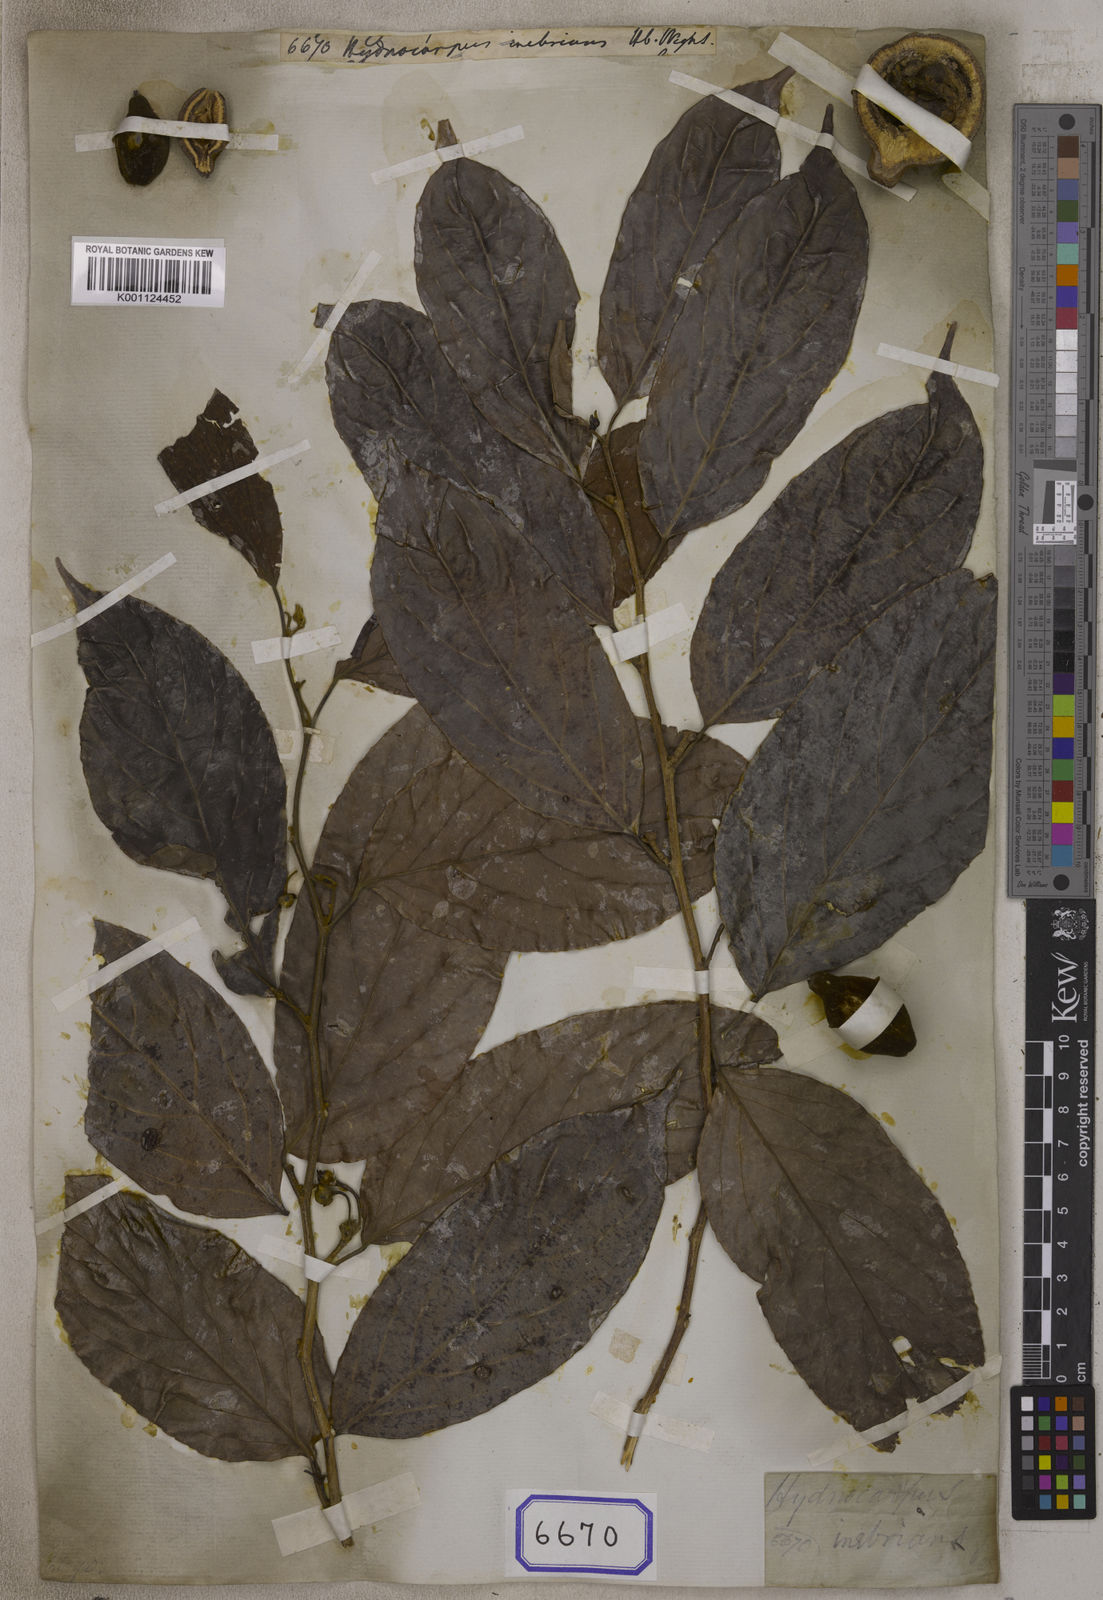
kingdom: Plantae
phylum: Tracheophyta
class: Magnoliopsida
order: Malpighiales
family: Achariaceae
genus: Hydnocarpus
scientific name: Hydnocarpus
